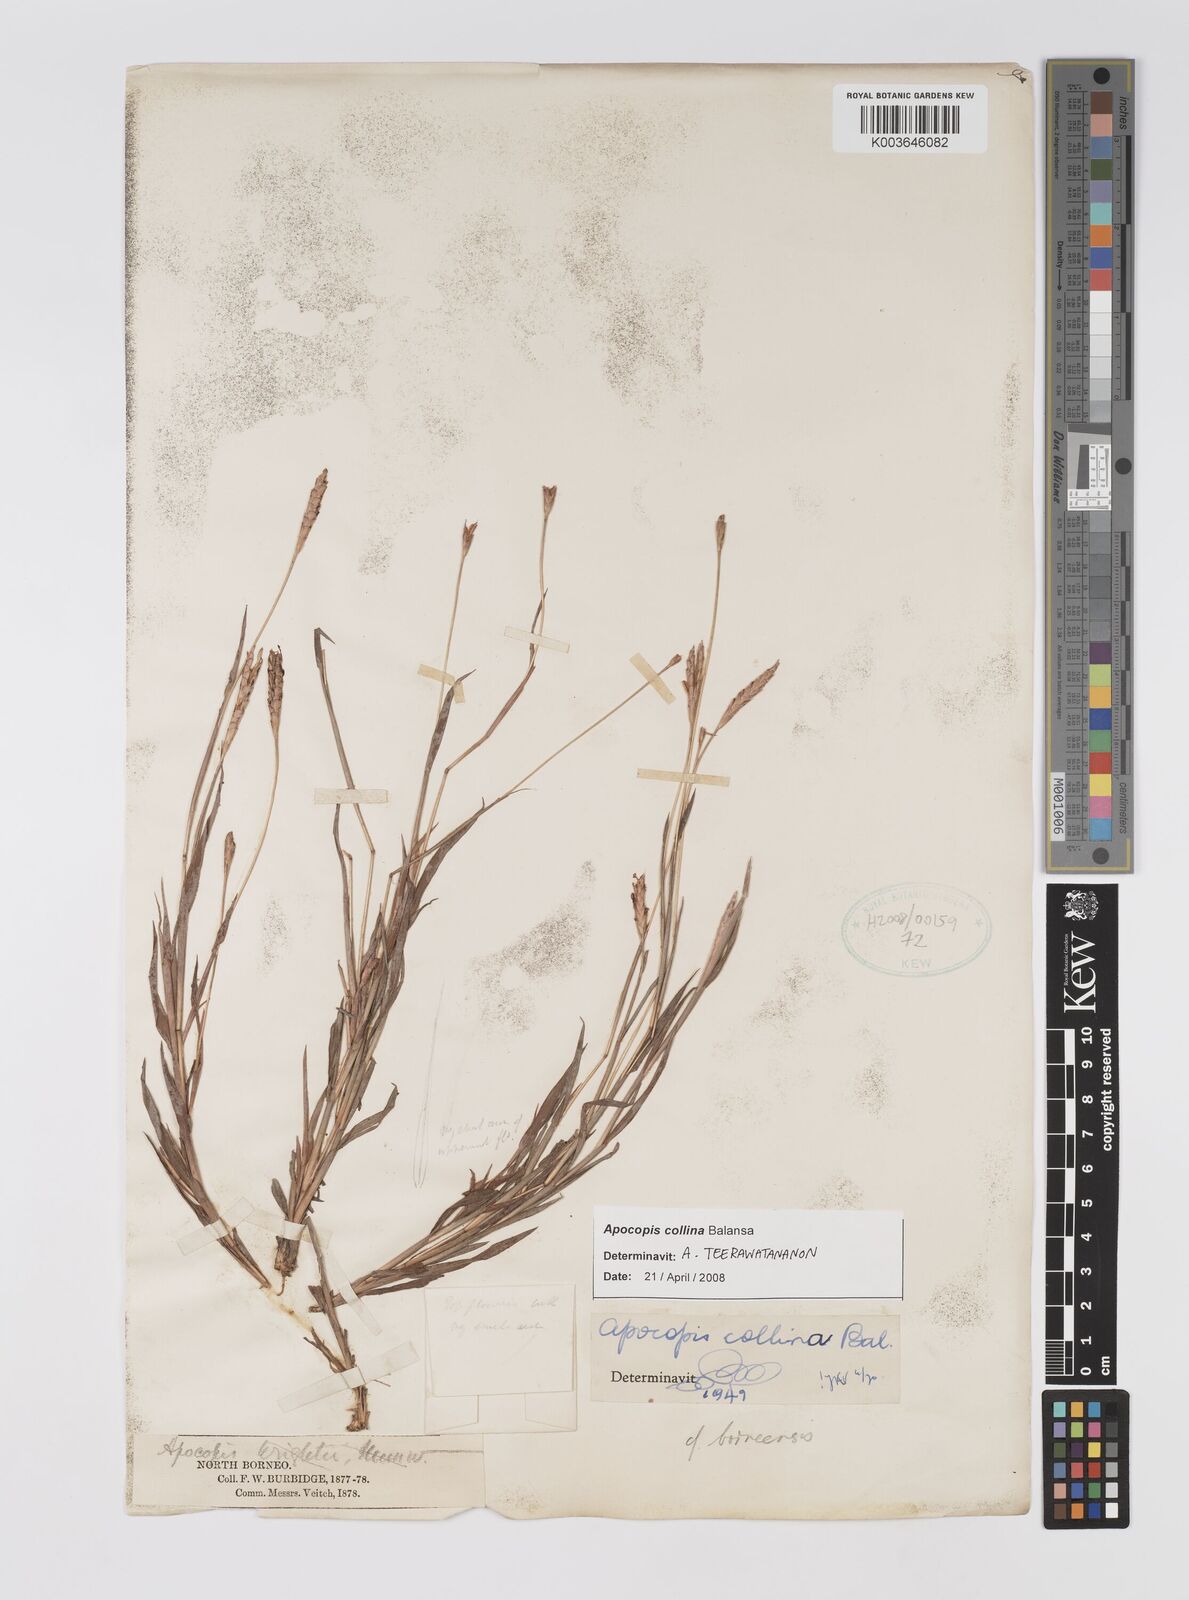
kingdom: Plantae
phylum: Tracheophyta
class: Liliopsida
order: Poales
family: Poaceae
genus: Apocopis
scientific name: Apocopis collinus
